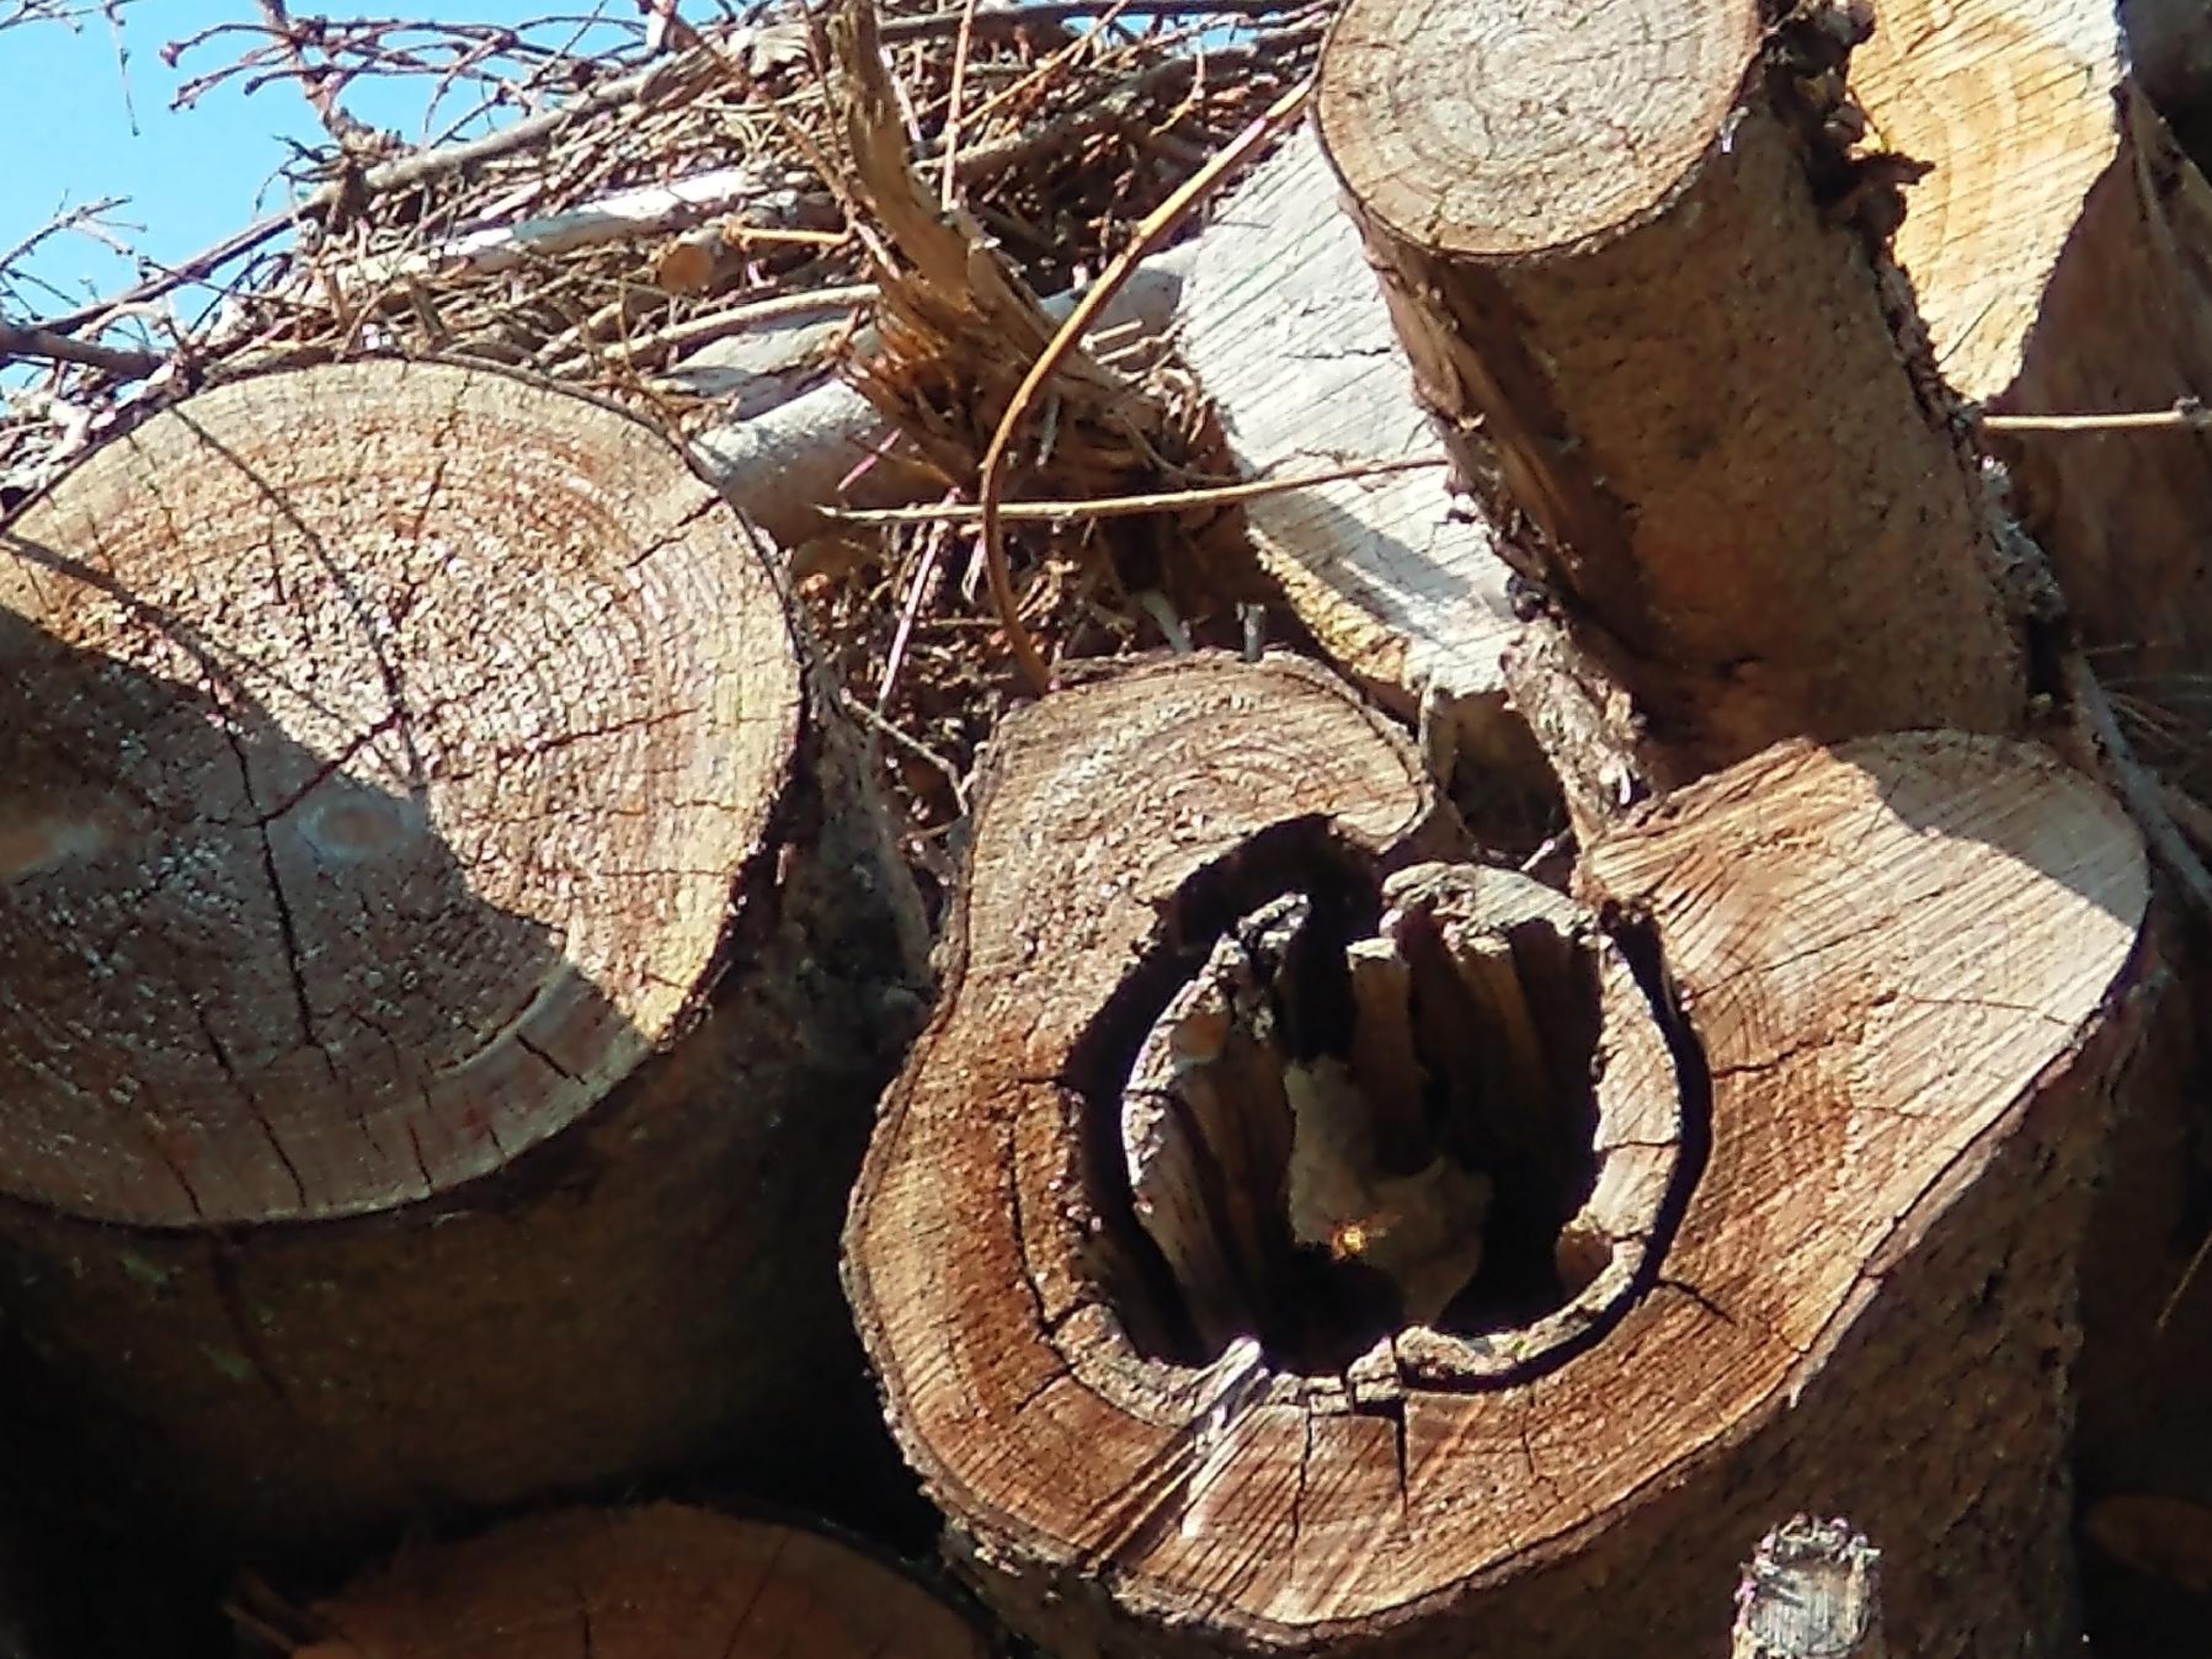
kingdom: Animalia
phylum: Arthropoda
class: Insecta
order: Hymenoptera
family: Vespidae
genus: Vespa
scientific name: Vespa crabro
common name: Stor gedehams
